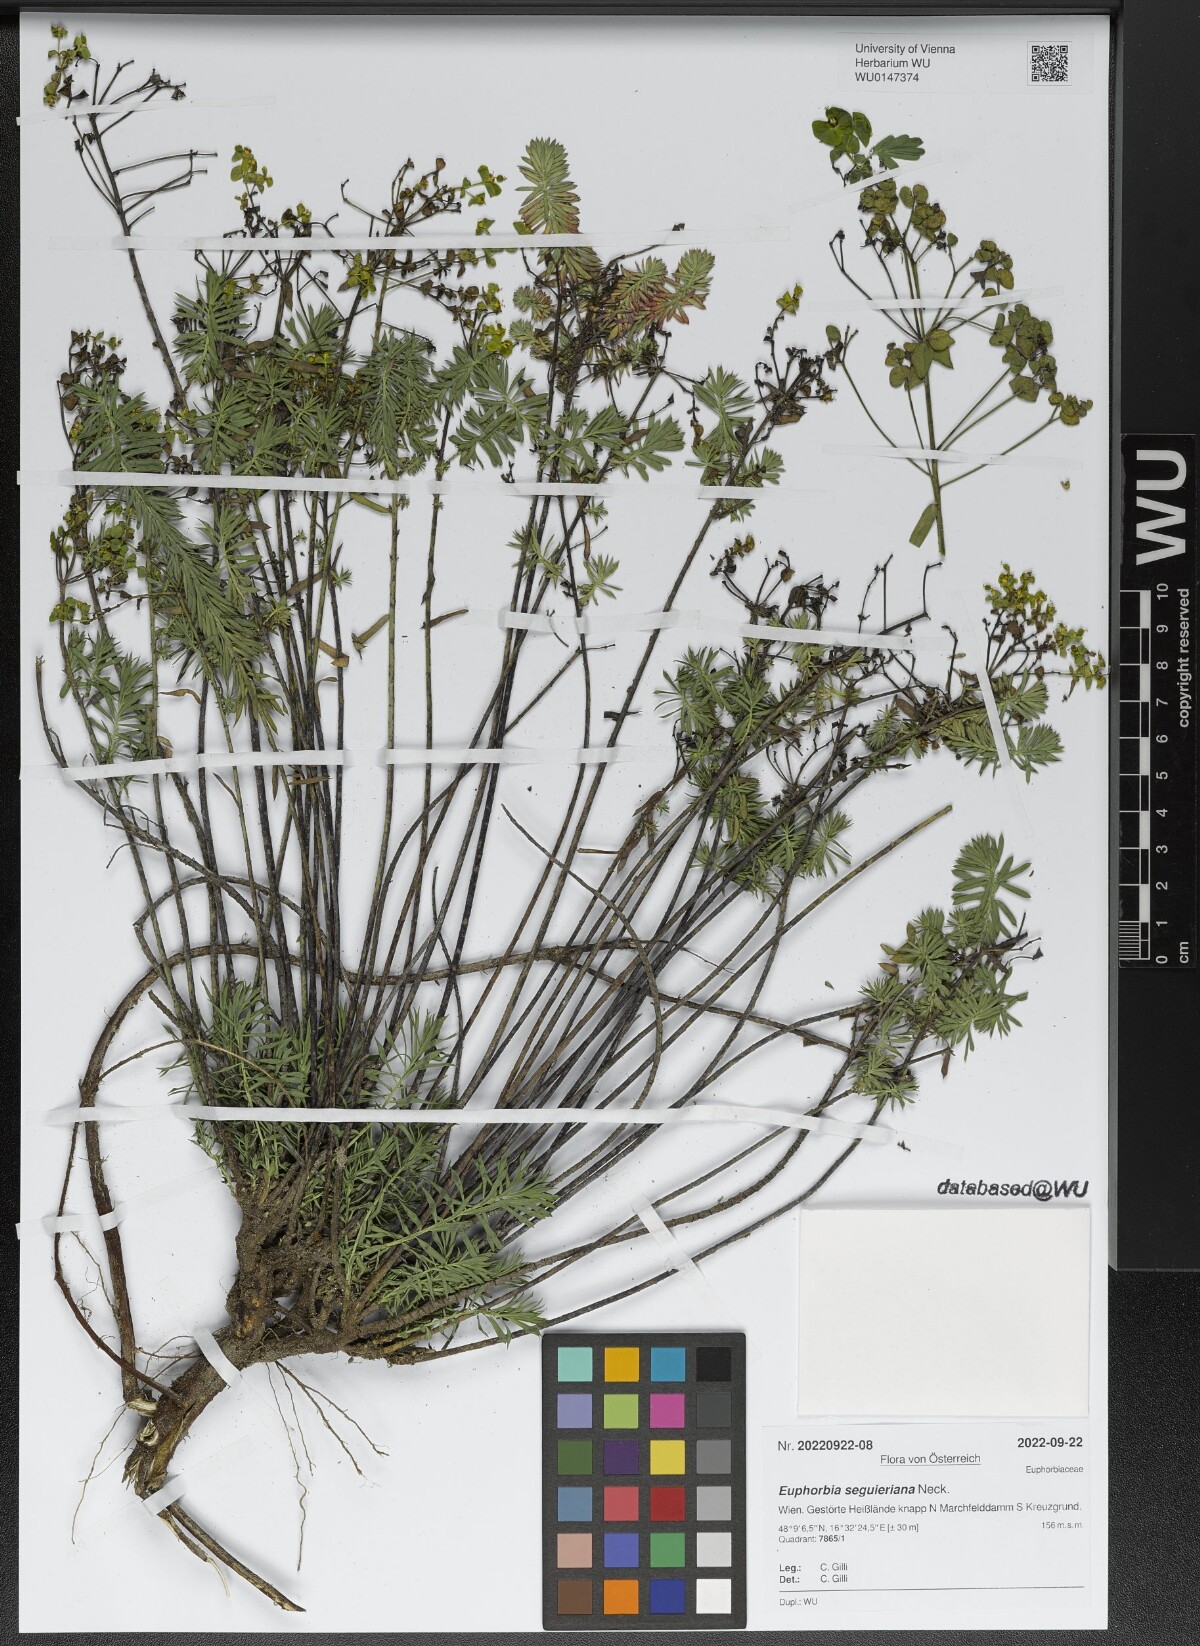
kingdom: Plantae
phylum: Tracheophyta
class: Magnoliopsida
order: Malpighiales
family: Euphorbiaceae
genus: Euphorbia
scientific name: Euphorbia seguieriana
